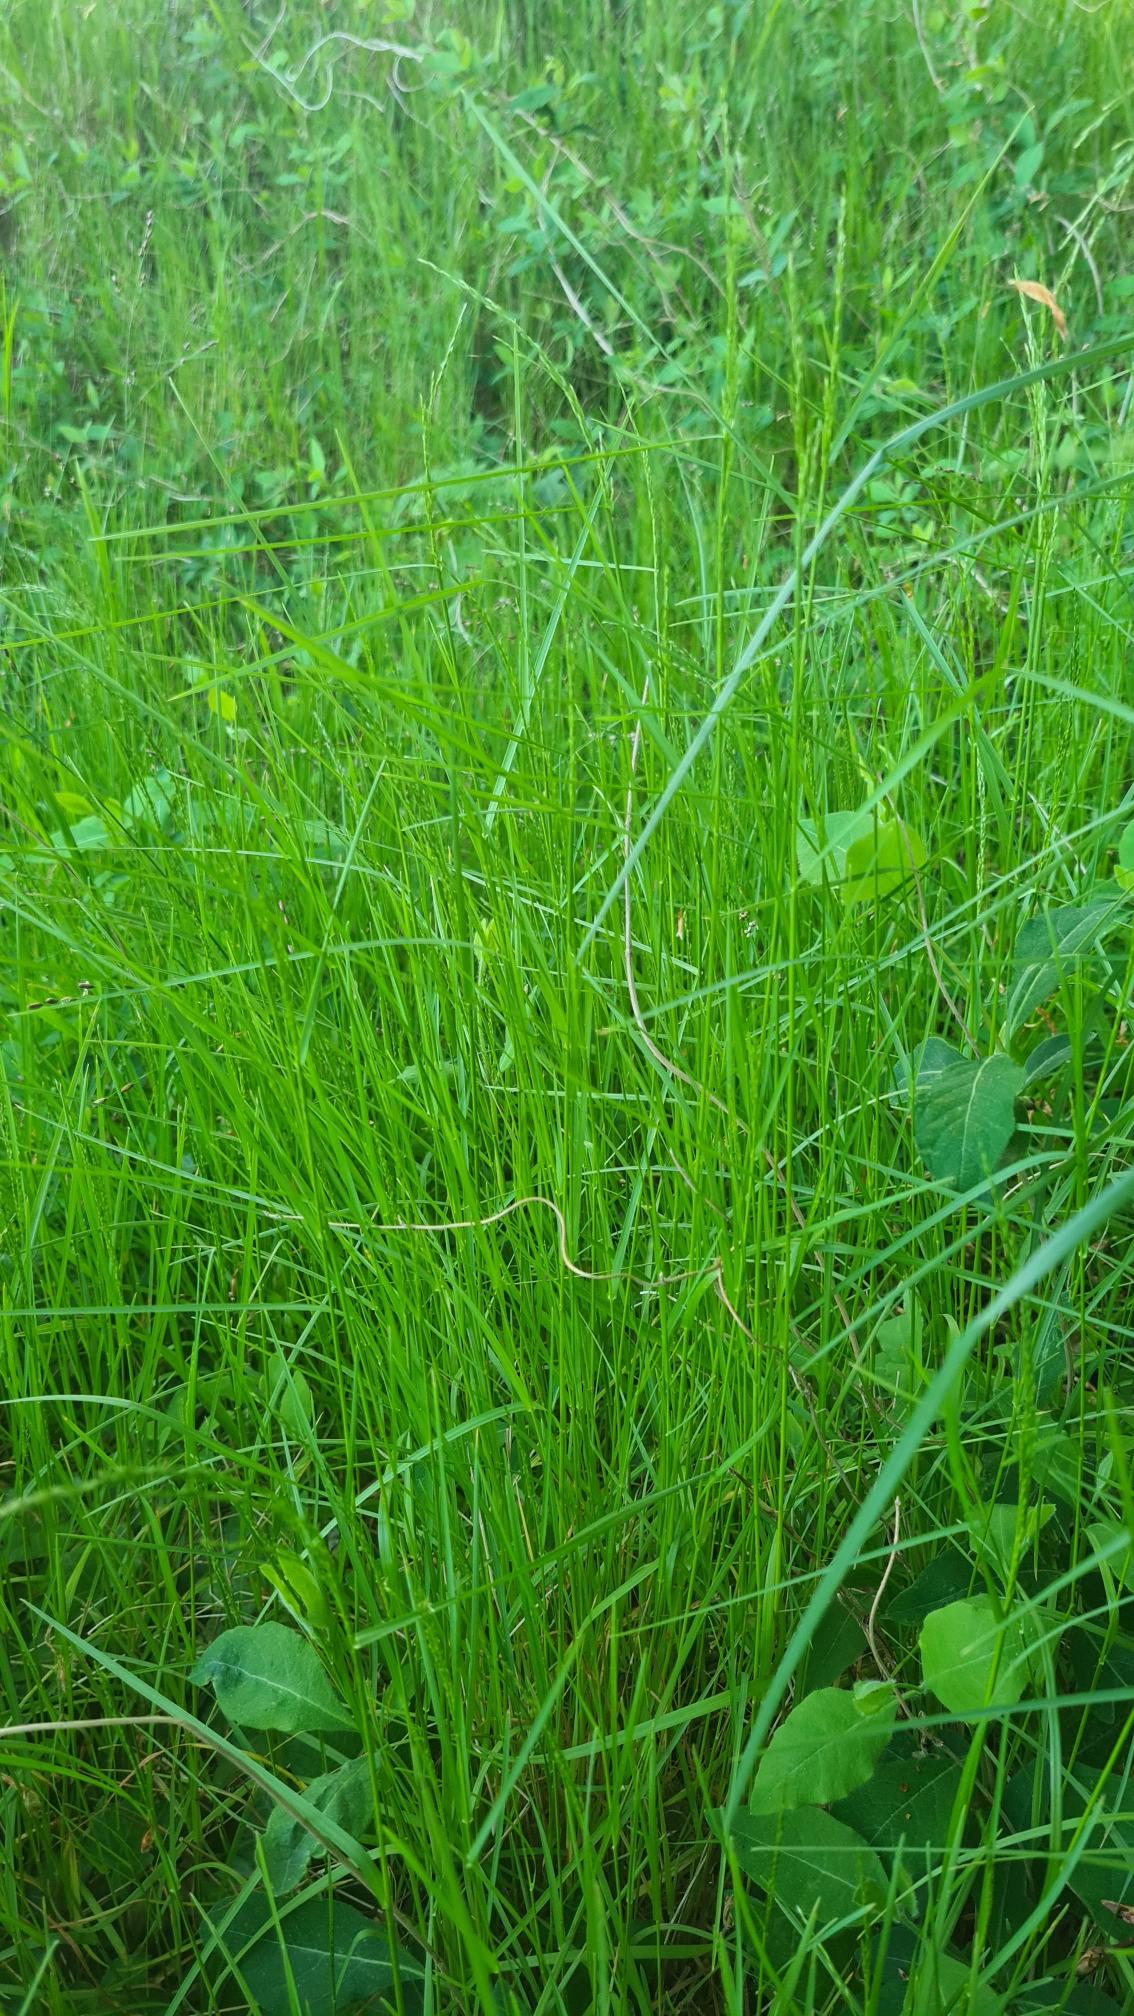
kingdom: Plantae
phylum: Tracheophyta
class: Liliopsida
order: Poales
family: Poaceae
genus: Poa
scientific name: Poa nemoralis
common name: Lund-rapgræs
